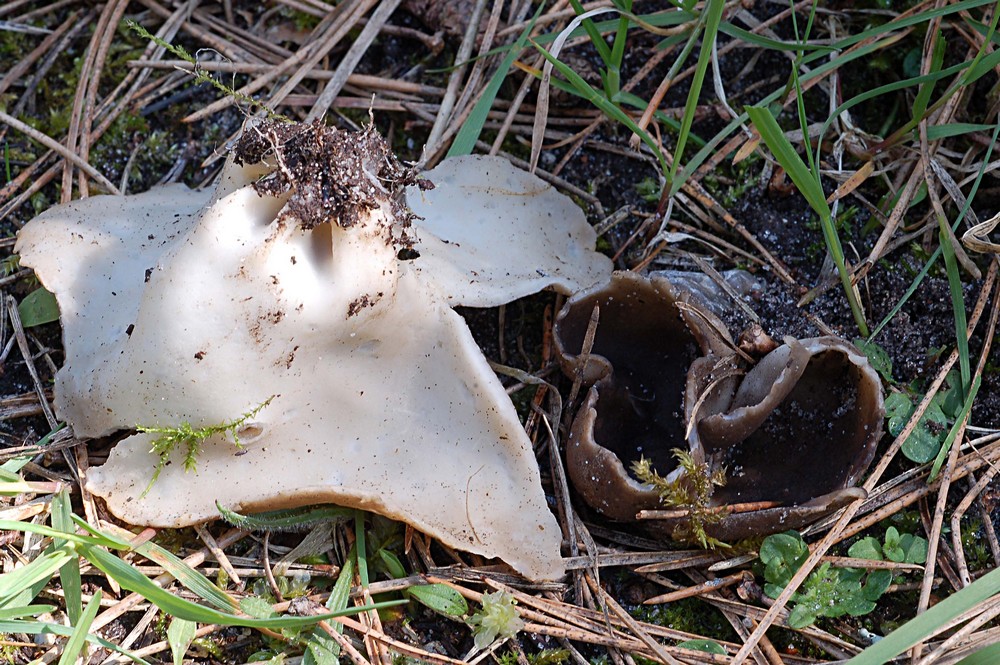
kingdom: Fungi
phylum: Ascomycota
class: Pezizomycetes
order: Pezizales
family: Helvellaceae
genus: Dissingia
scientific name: Dissingia leucomelaena
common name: sorthvid foldhat
